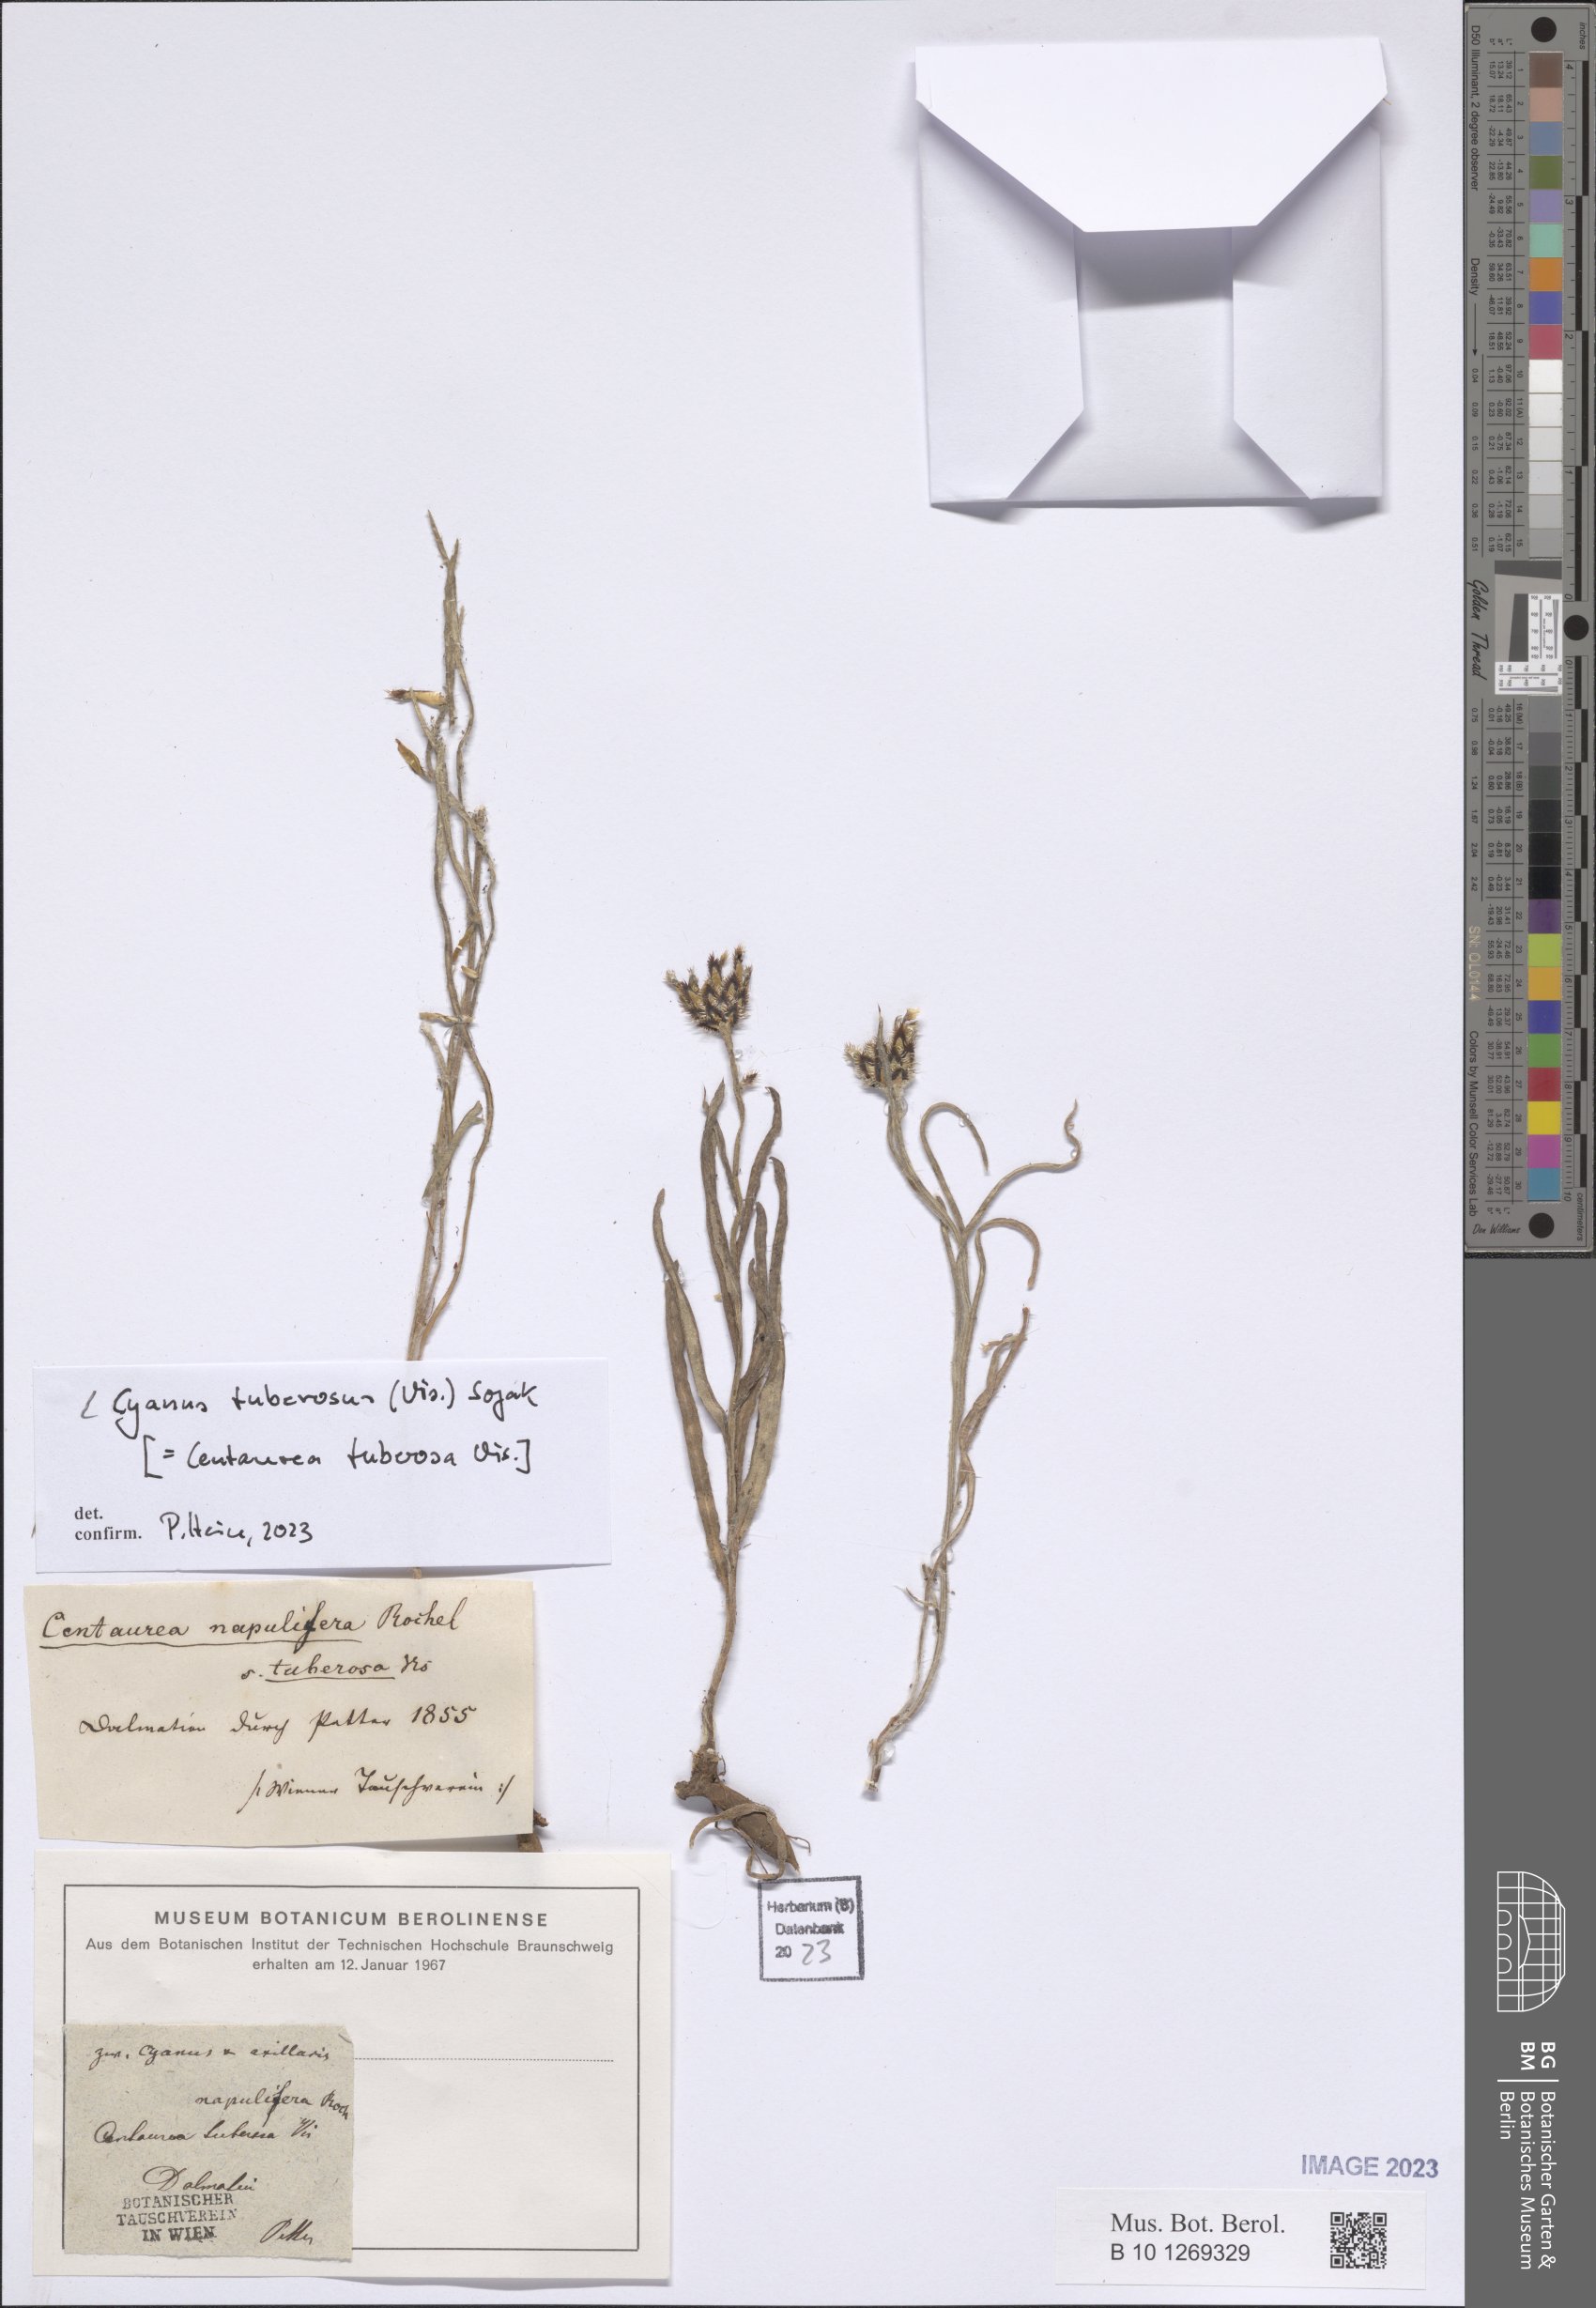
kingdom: Plantae
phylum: Tracheophyta
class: Magnoliopsida
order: Asterales
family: Asteraceae
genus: Centaurea
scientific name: Centaurea tuberosa
